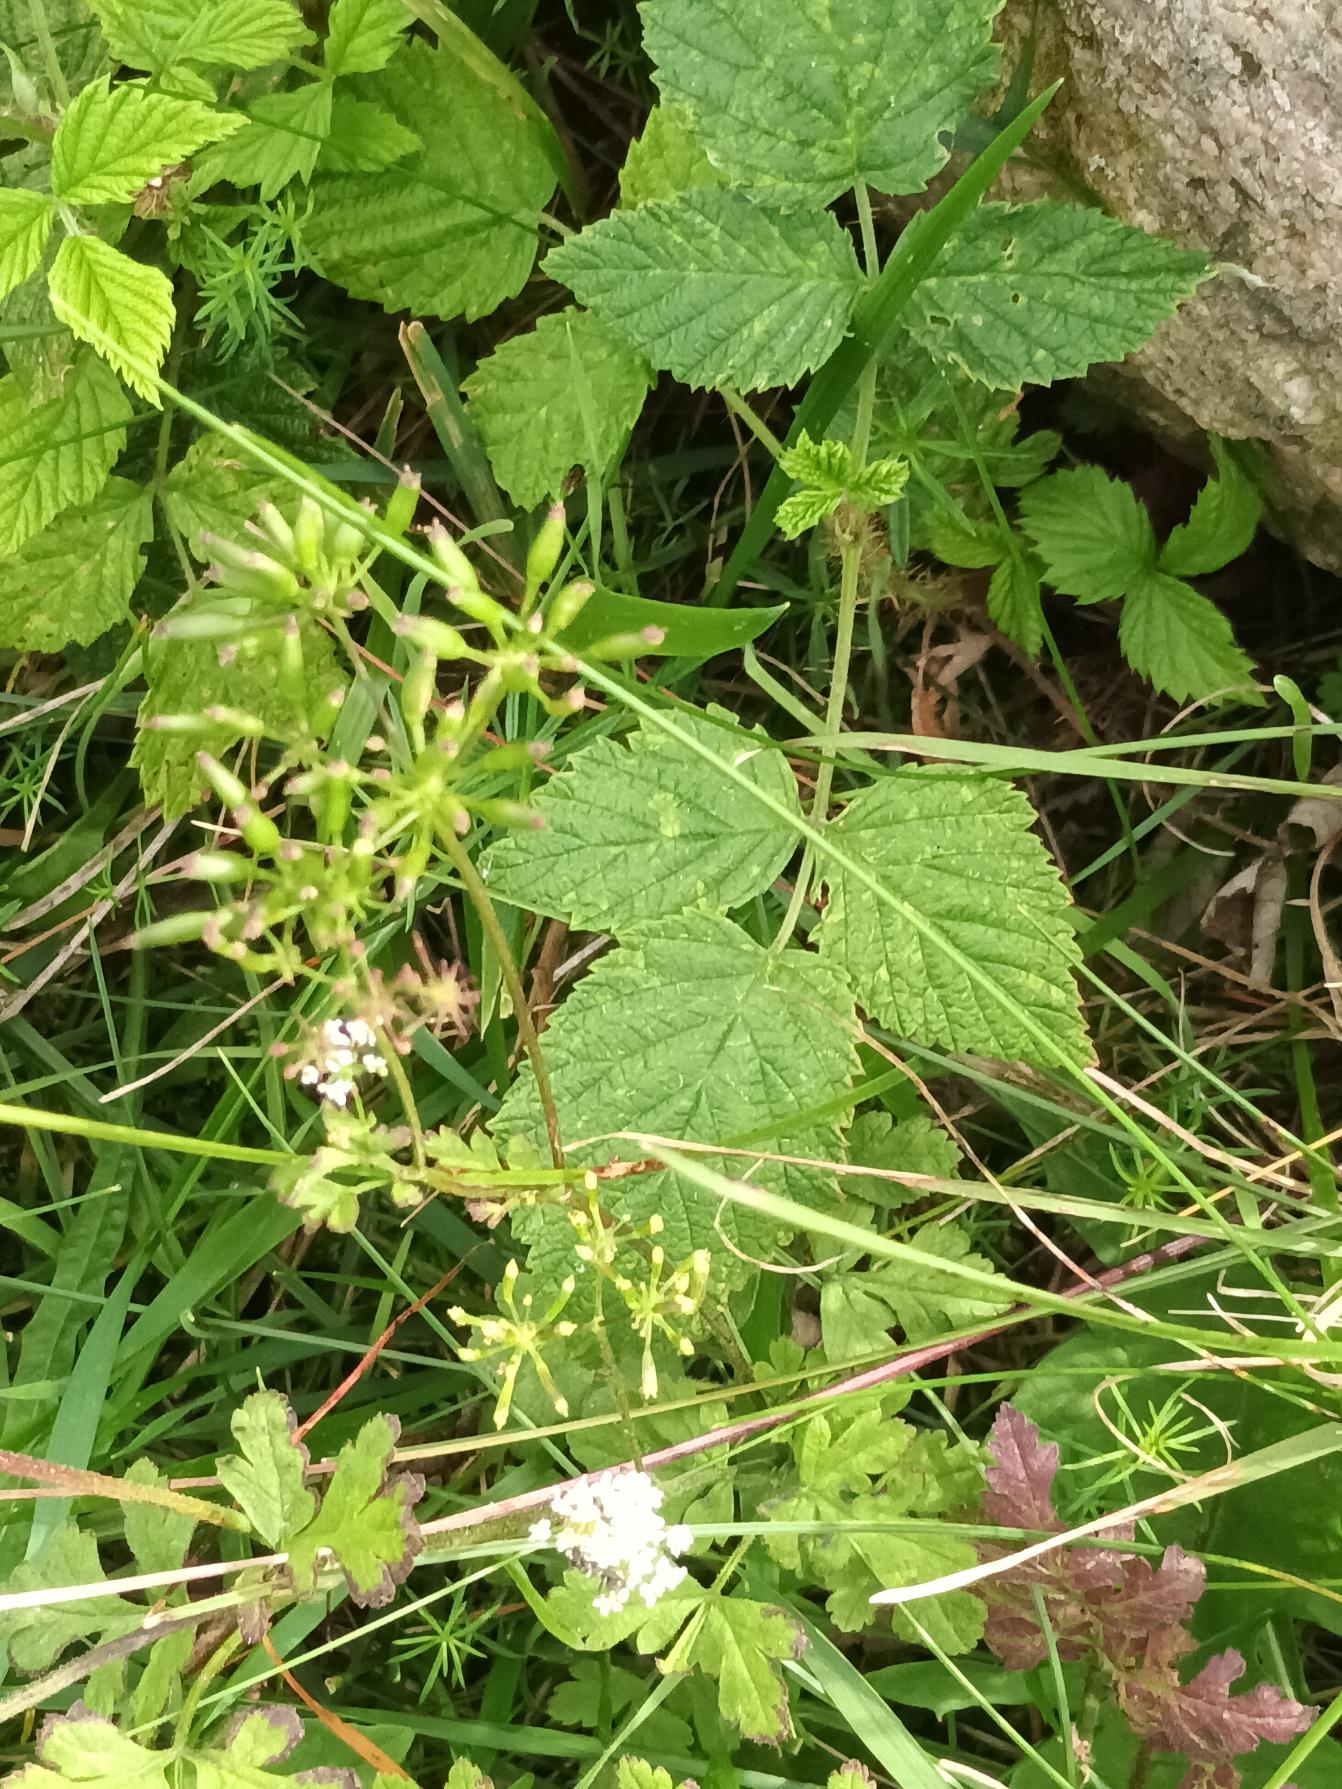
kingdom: Plantae
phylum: Tracheophyta
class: Magnoliopsida
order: Apiales
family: Apiaceae
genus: Chaerophyllum
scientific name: Chaerophyllum temulum
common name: Almindelig hulsvøb
